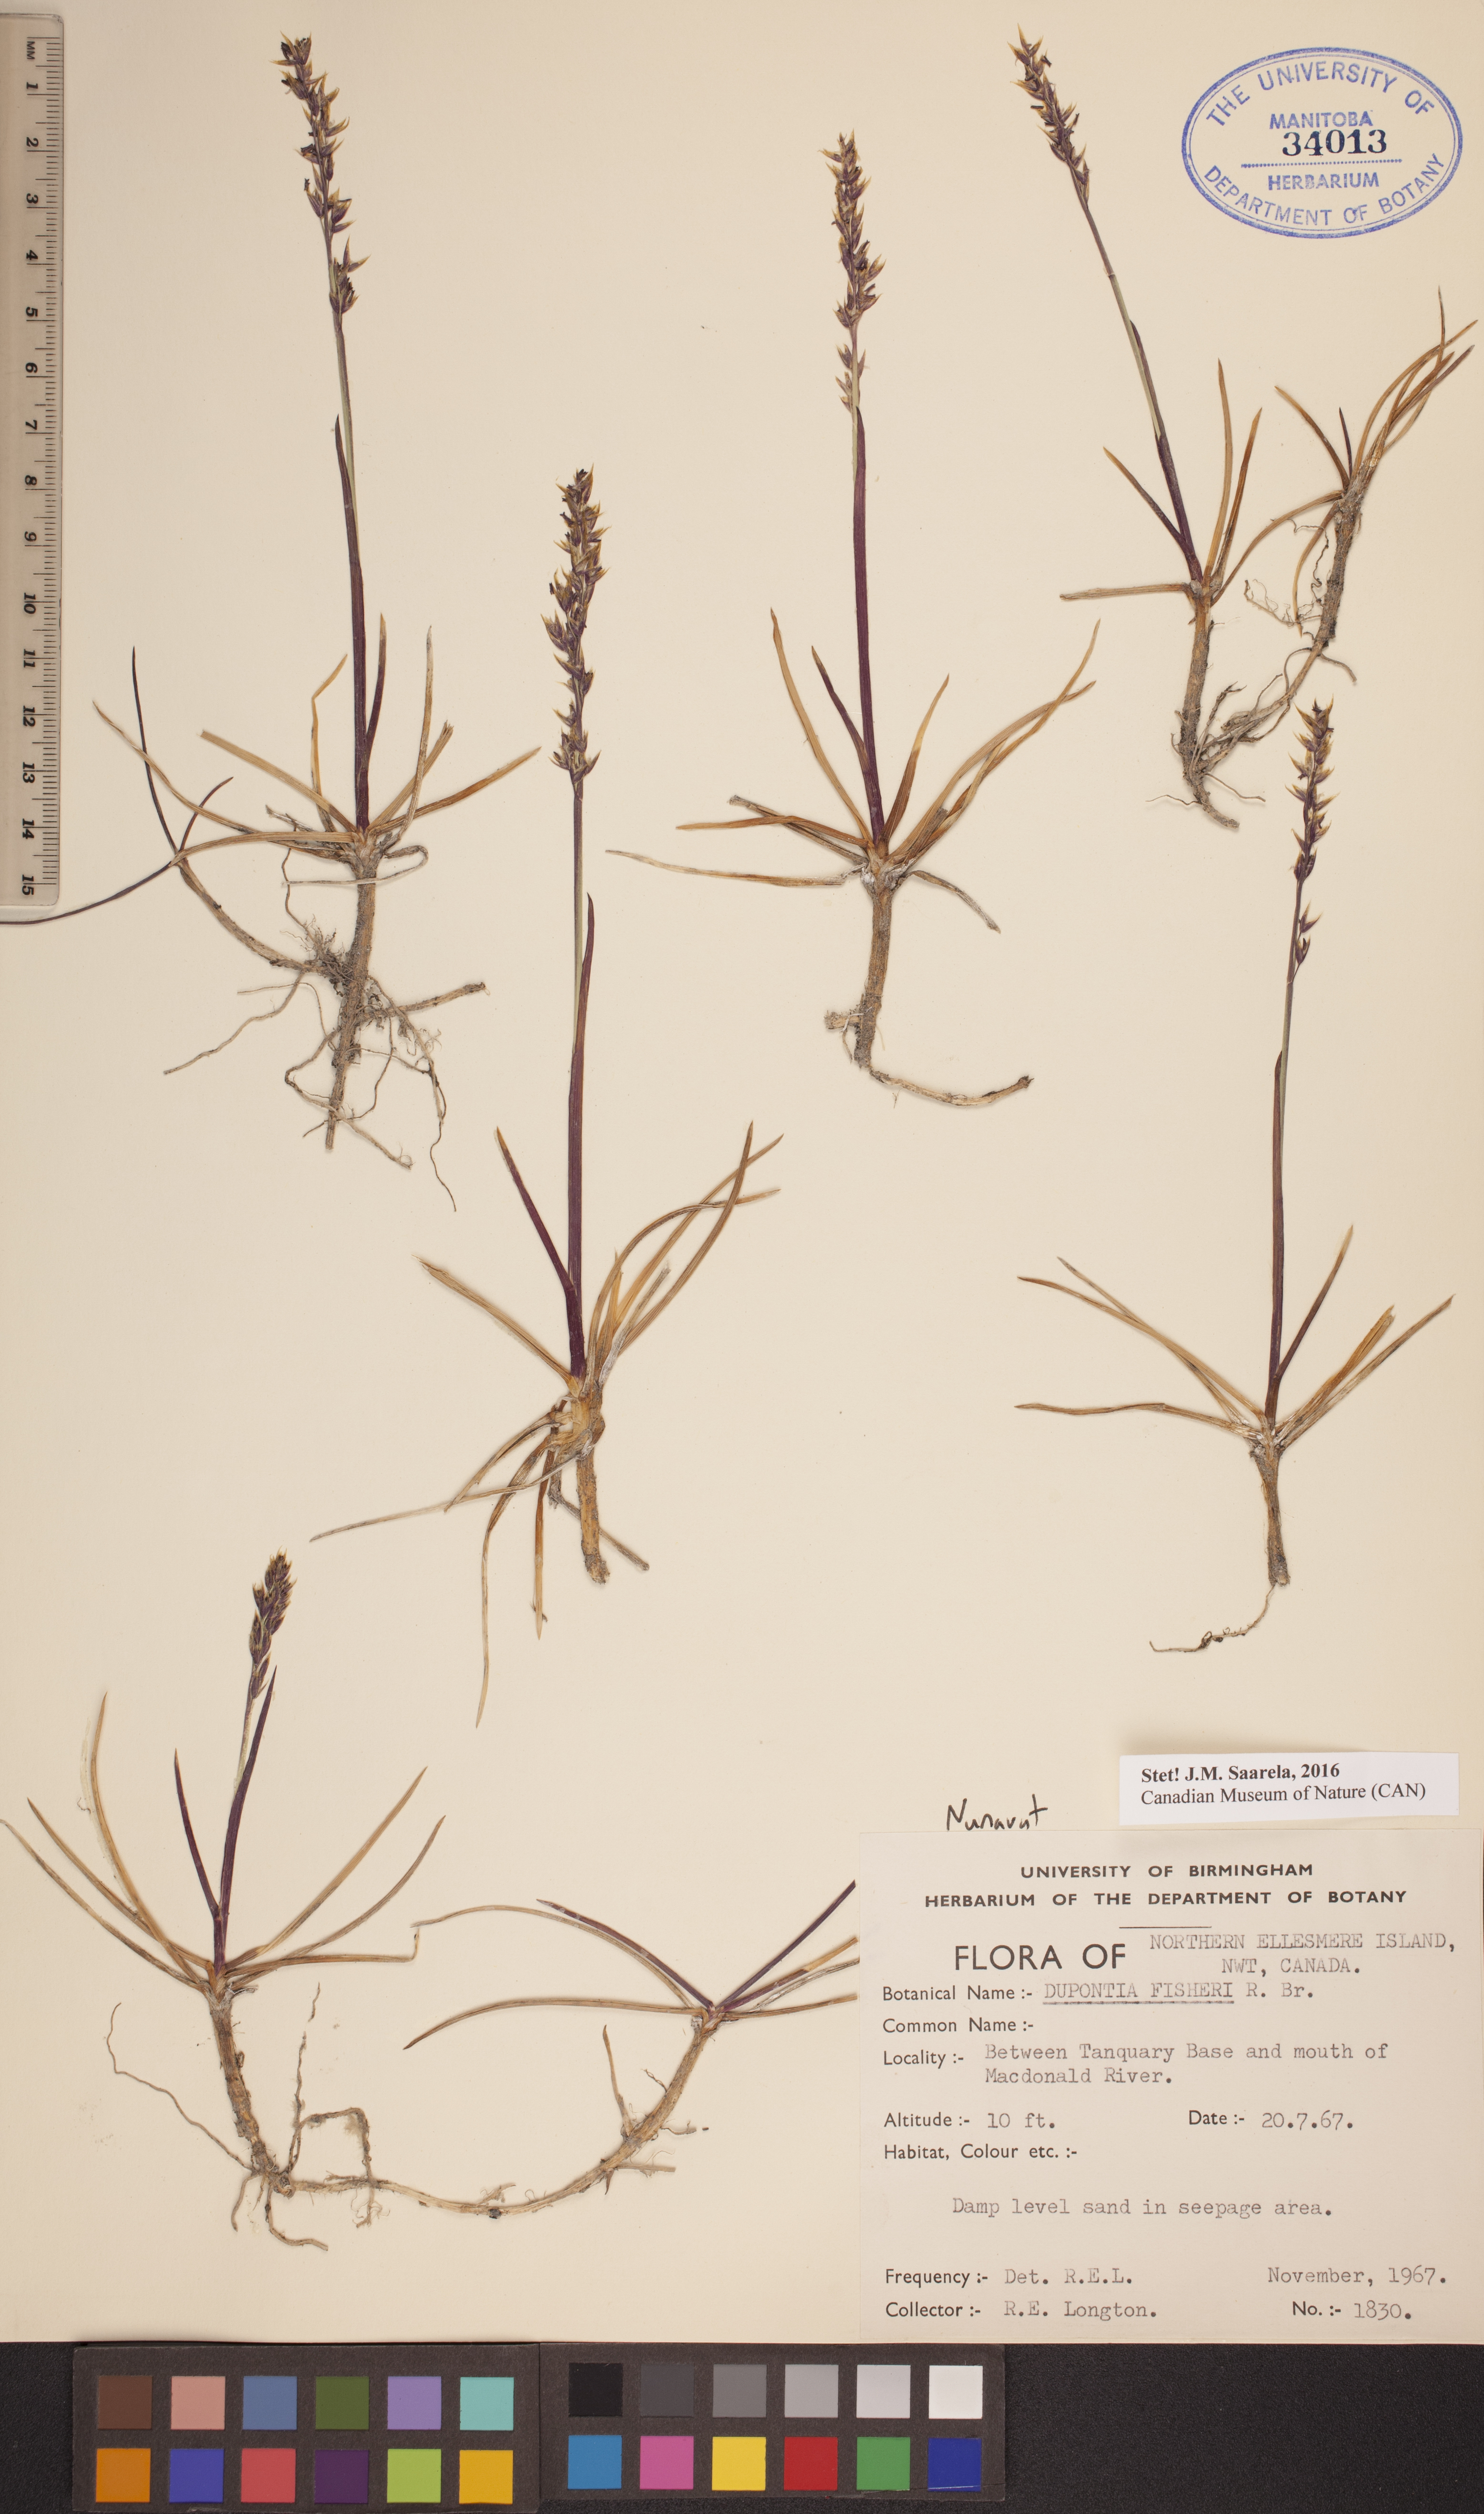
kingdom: Plantae
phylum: Tracheophyta
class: Liliopsida
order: Poales
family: Poaceae
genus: Dupontia
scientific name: Dupontia fisheri
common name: Tundra grass
